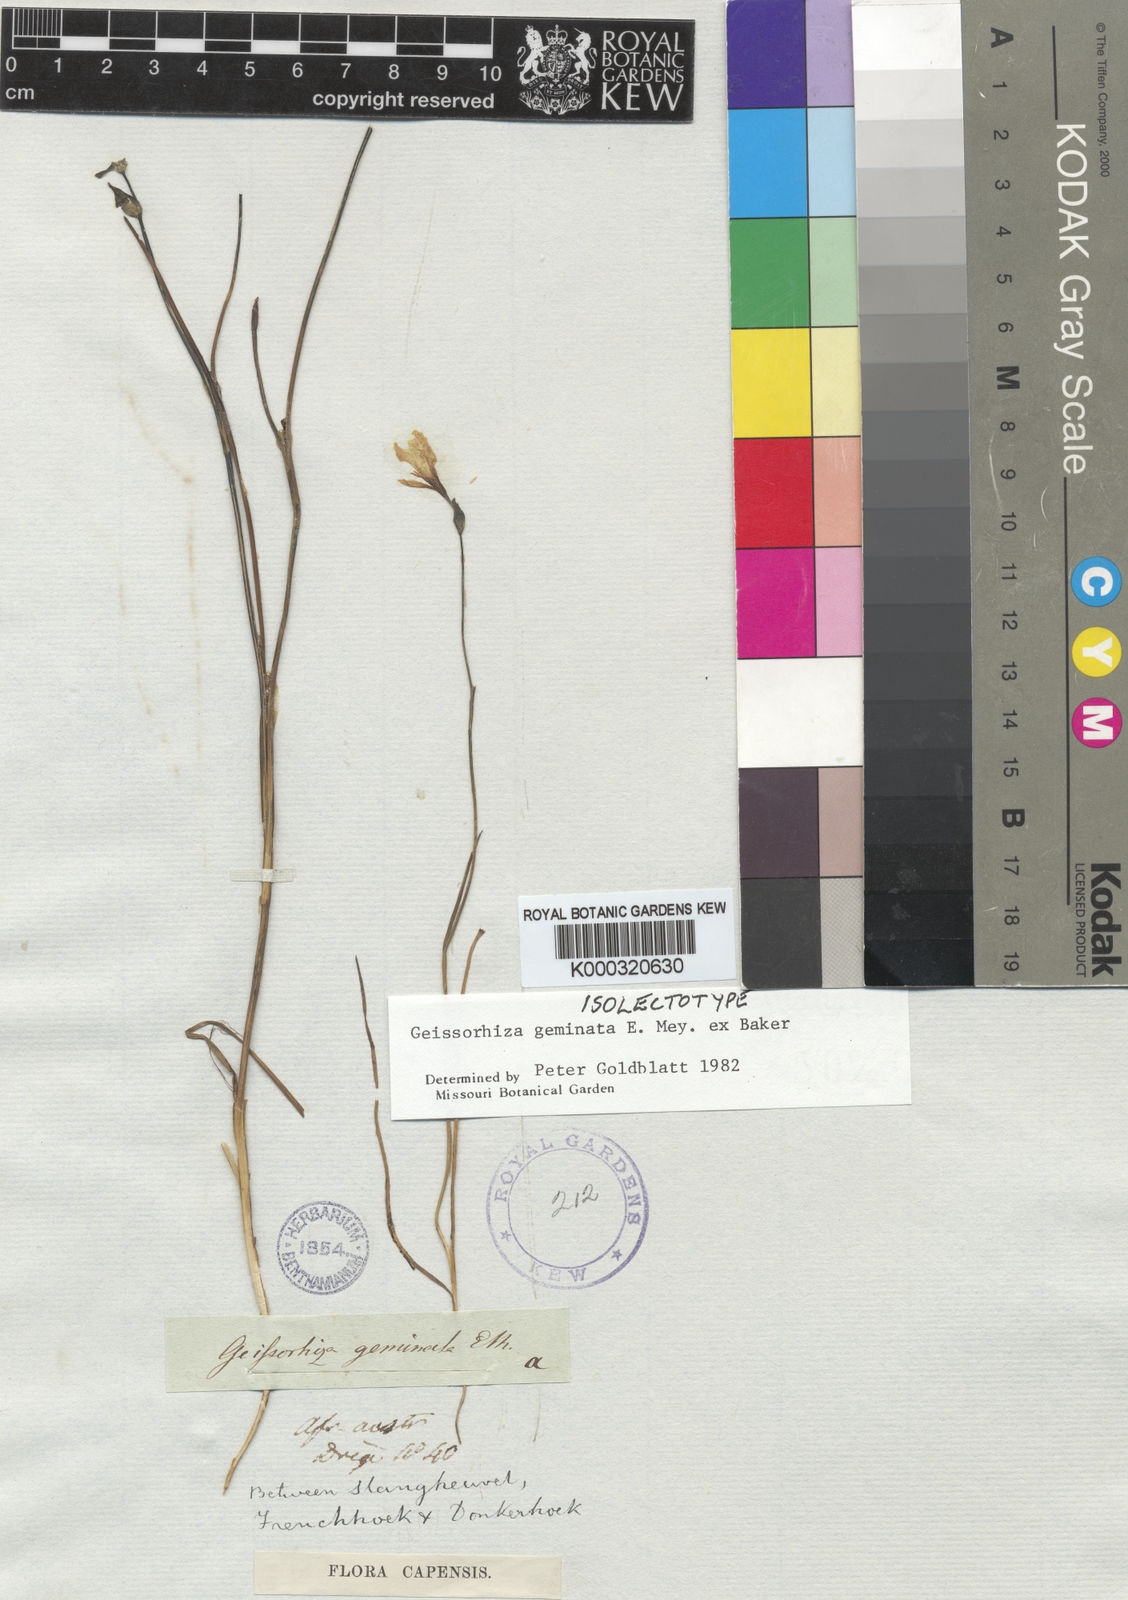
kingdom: Plantae
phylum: Tracheophyta
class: Liliopsida
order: Asparagales
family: Iridaceae
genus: Geissorhiza
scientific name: Geissorhiza geminata
